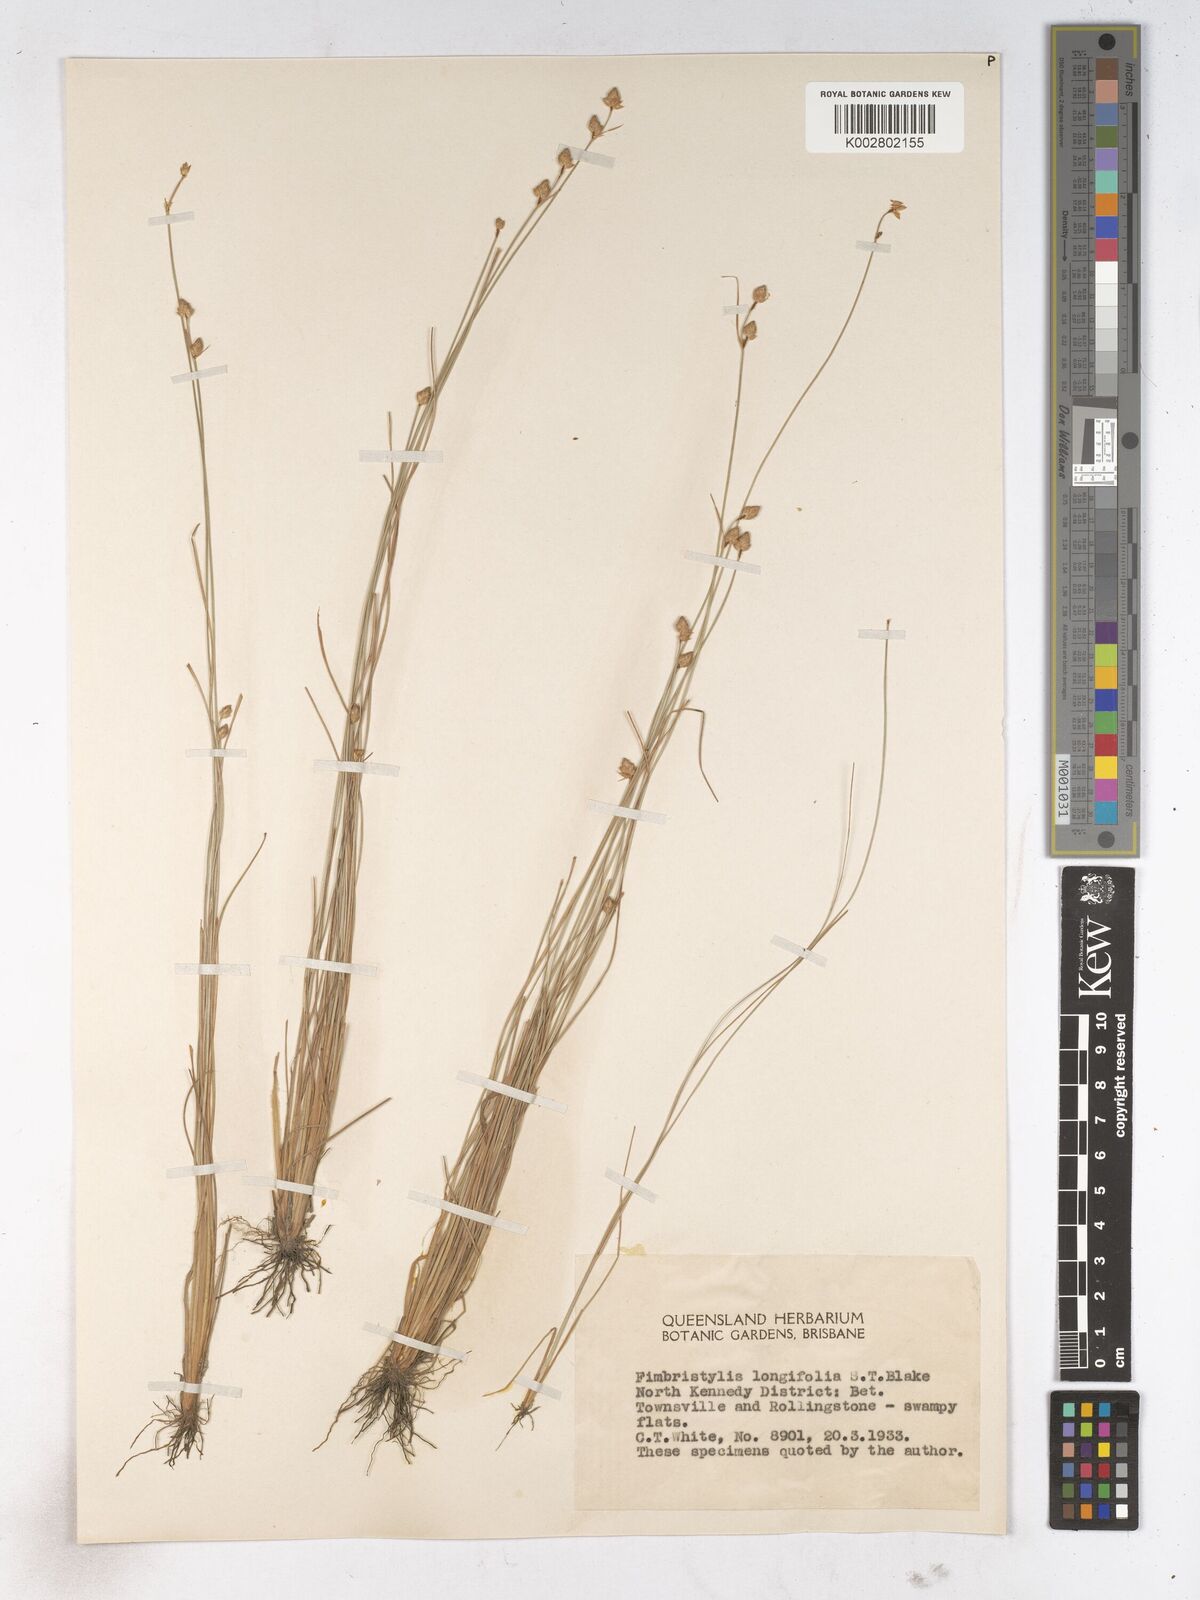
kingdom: Plantae
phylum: Tracheophyta
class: Liliopsida
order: Poales
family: Cyperaceae
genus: Fimbristylis
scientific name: Fimbristylis schoenoides
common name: Ditch fimbry
